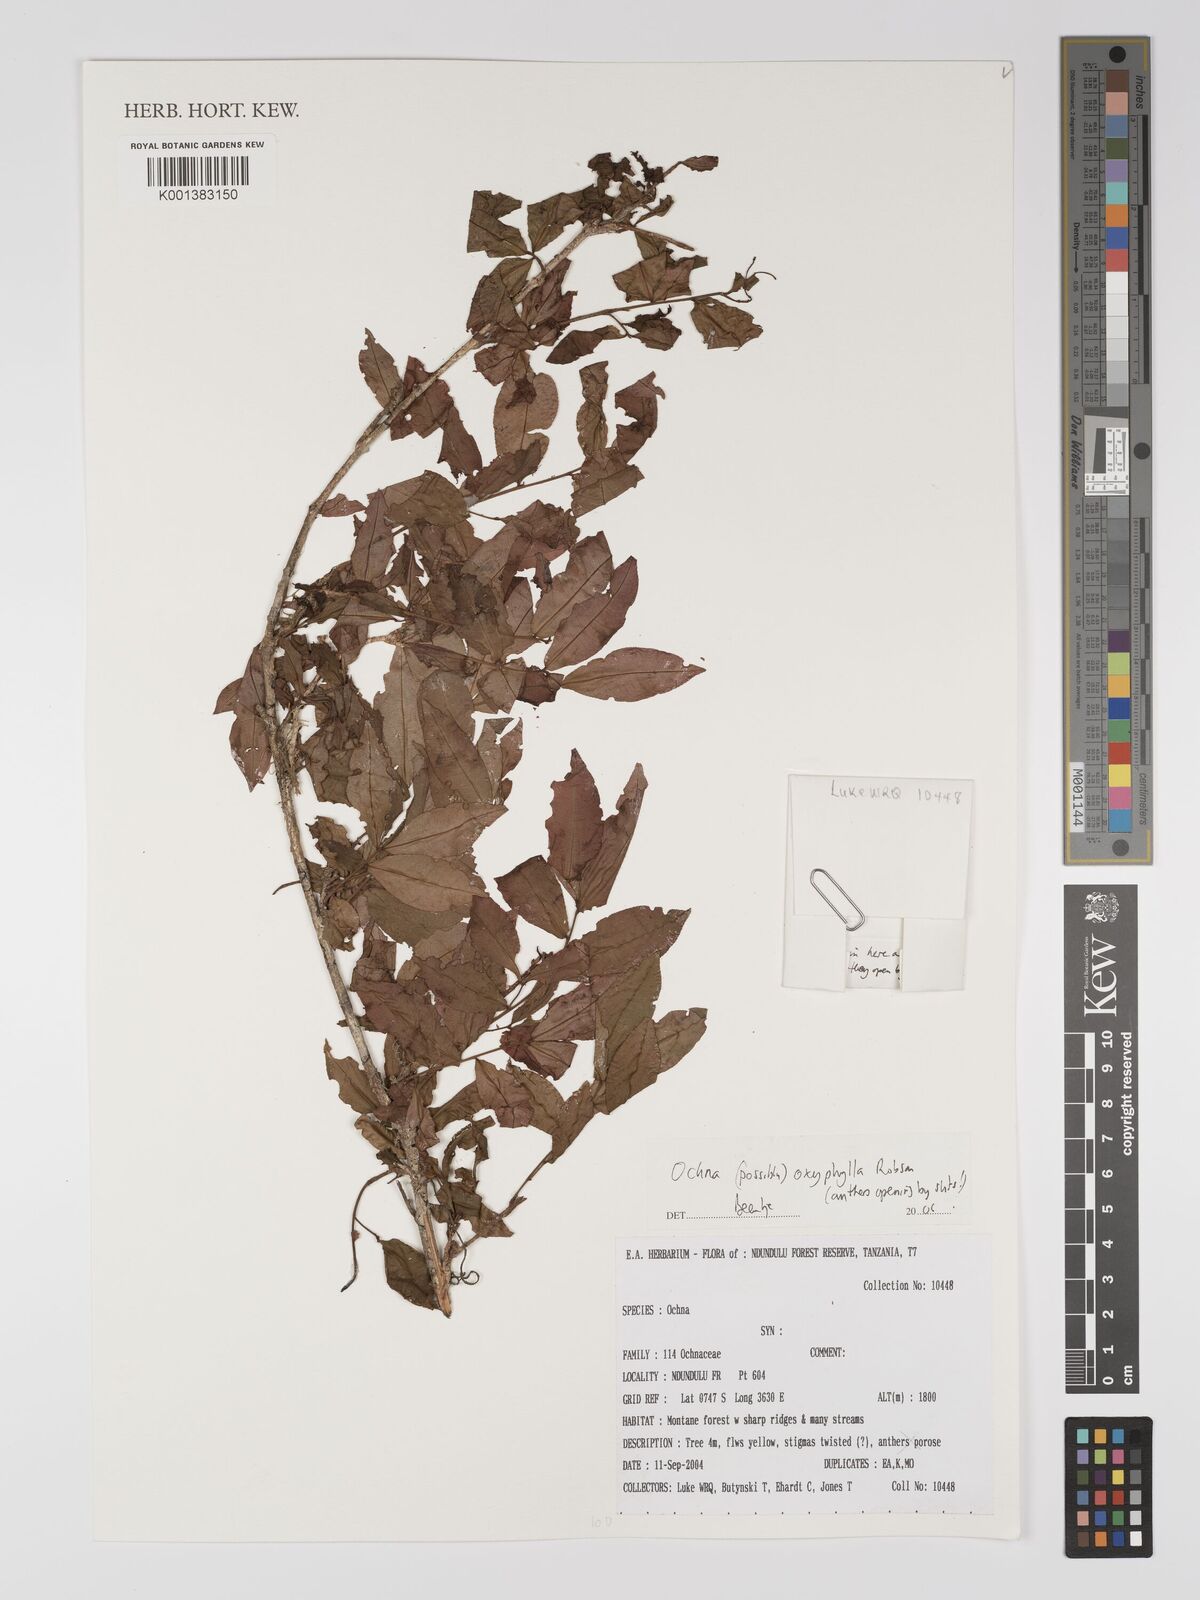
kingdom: Plantae
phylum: Tracheophyta
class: Magnoliopsida
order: Malpighiales
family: Ochnaceae
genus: Ochna
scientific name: Ochna oxyphylla
